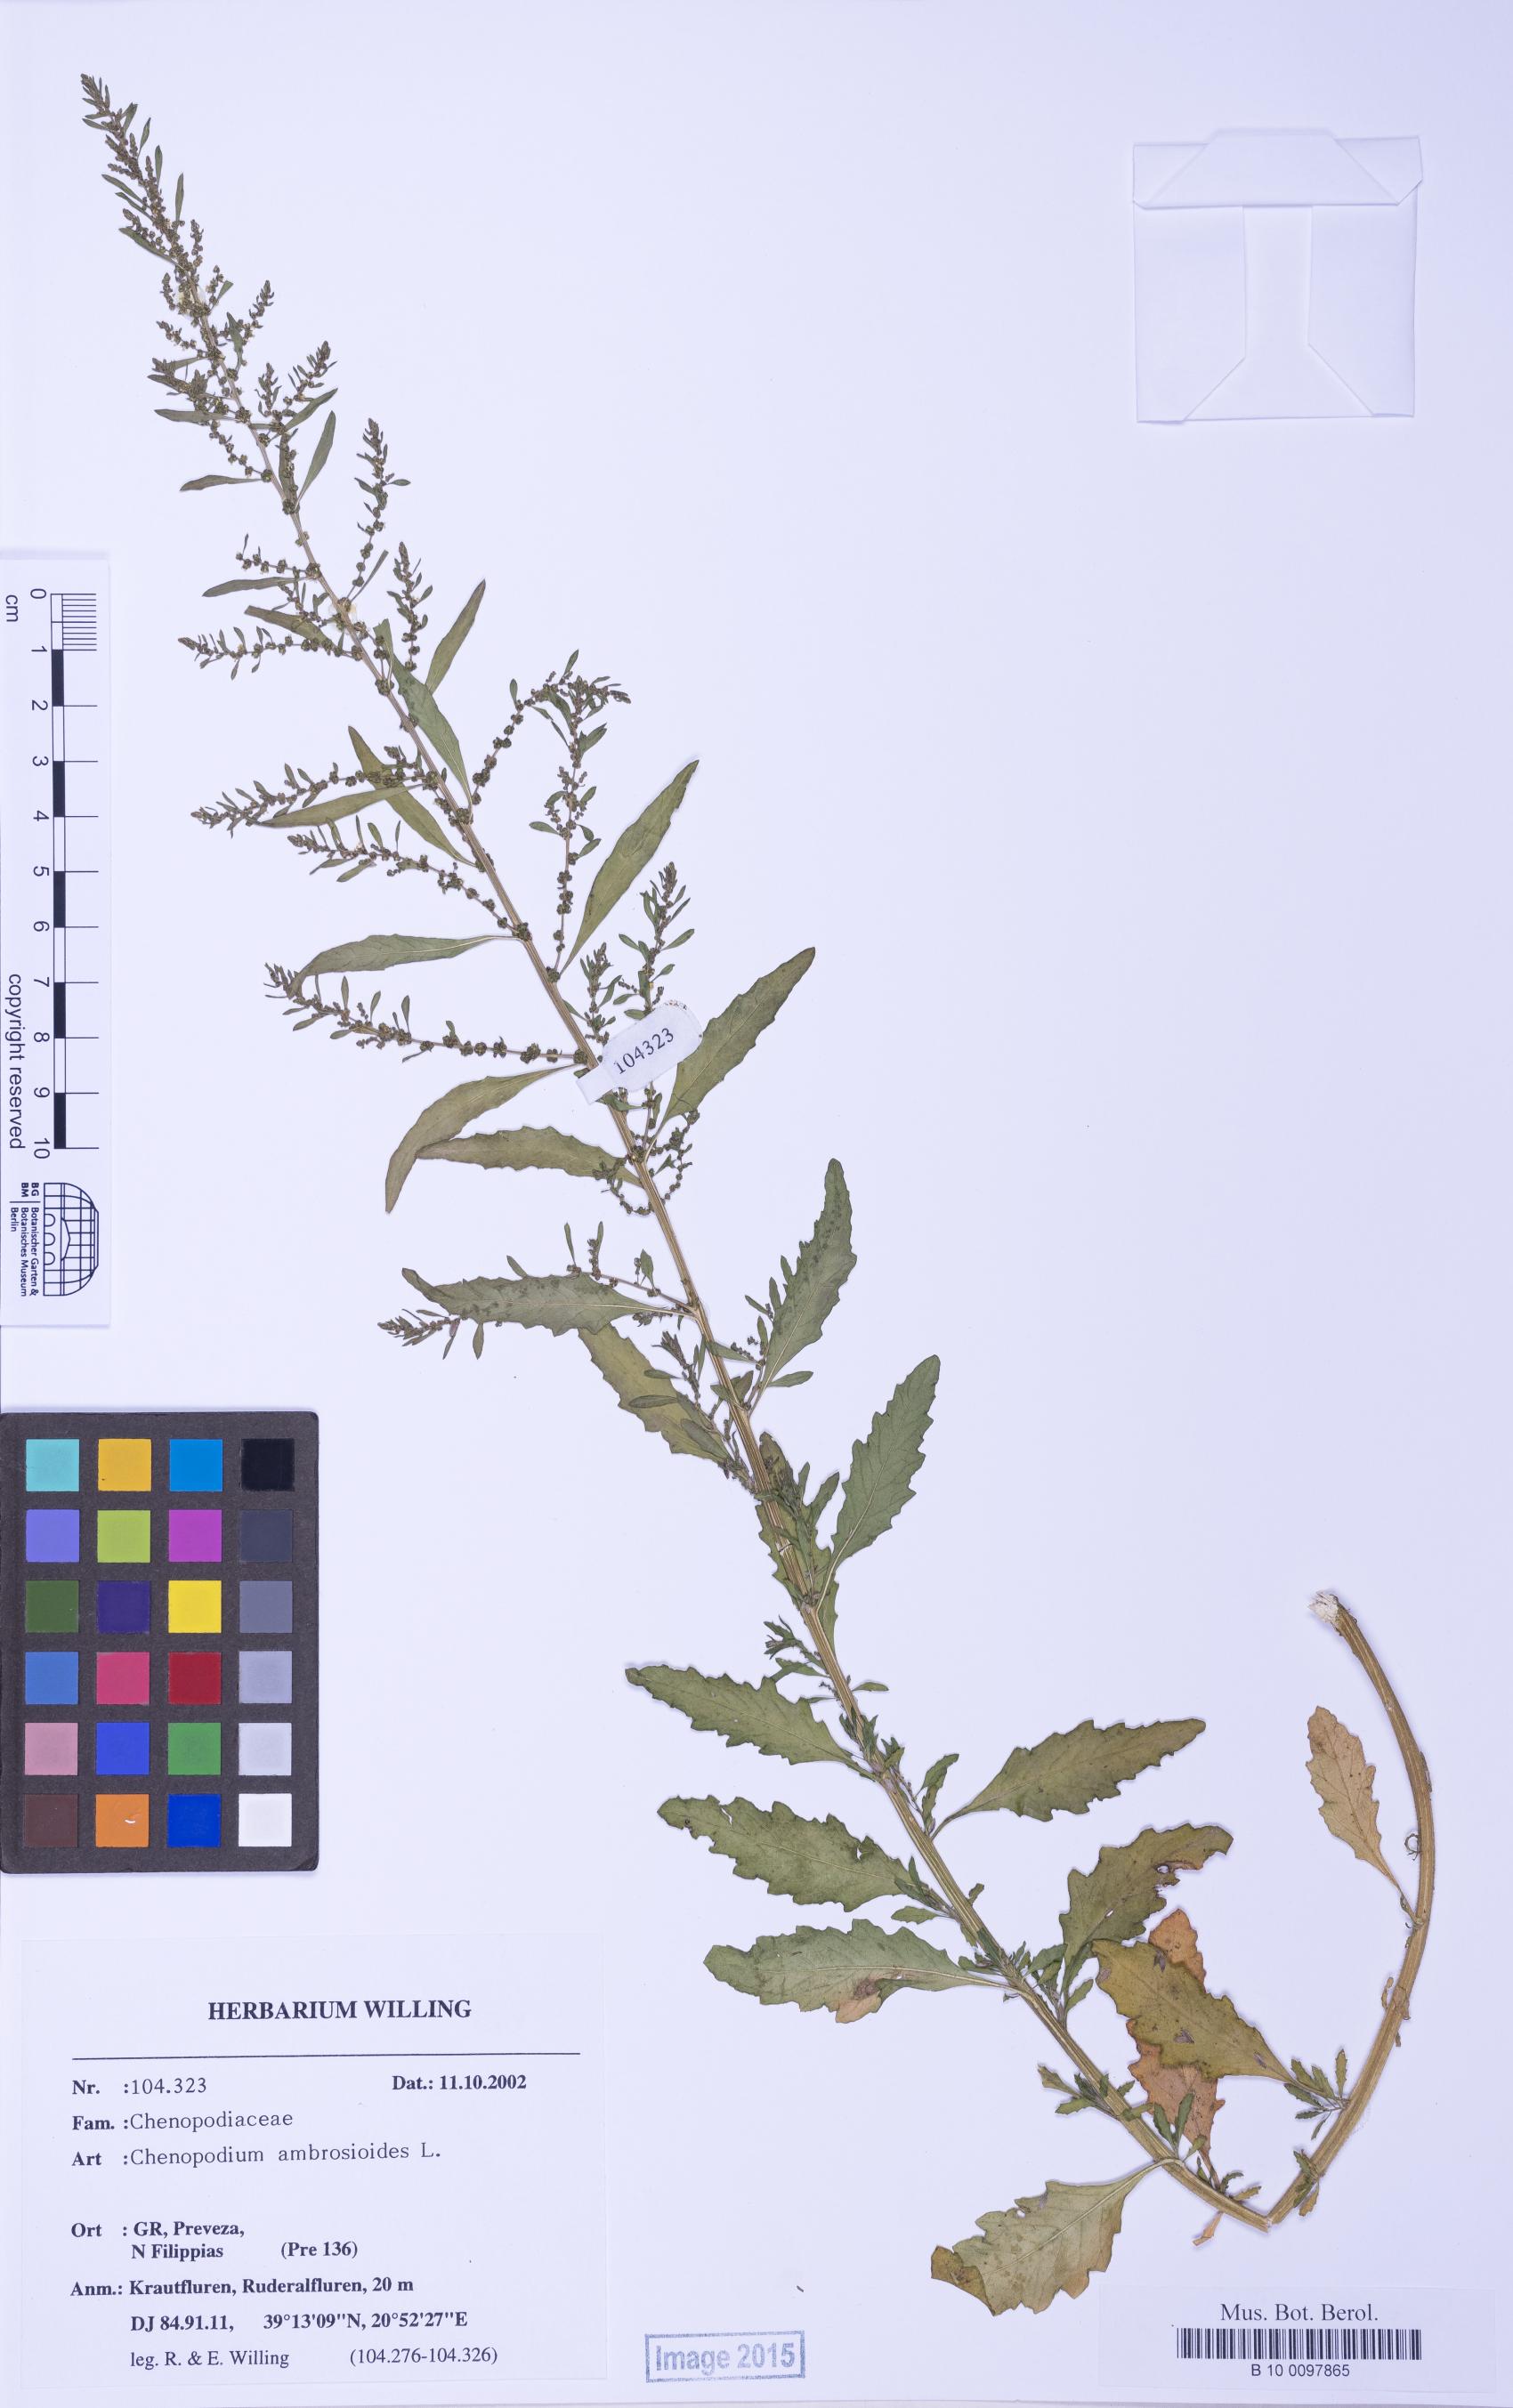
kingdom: Plantae
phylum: Tracheophyta
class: Magnoliopsida
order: Caryophyllales
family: Amaranthaceae
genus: Dysphania
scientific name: Dysphania ambrosioides
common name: Wormseed
